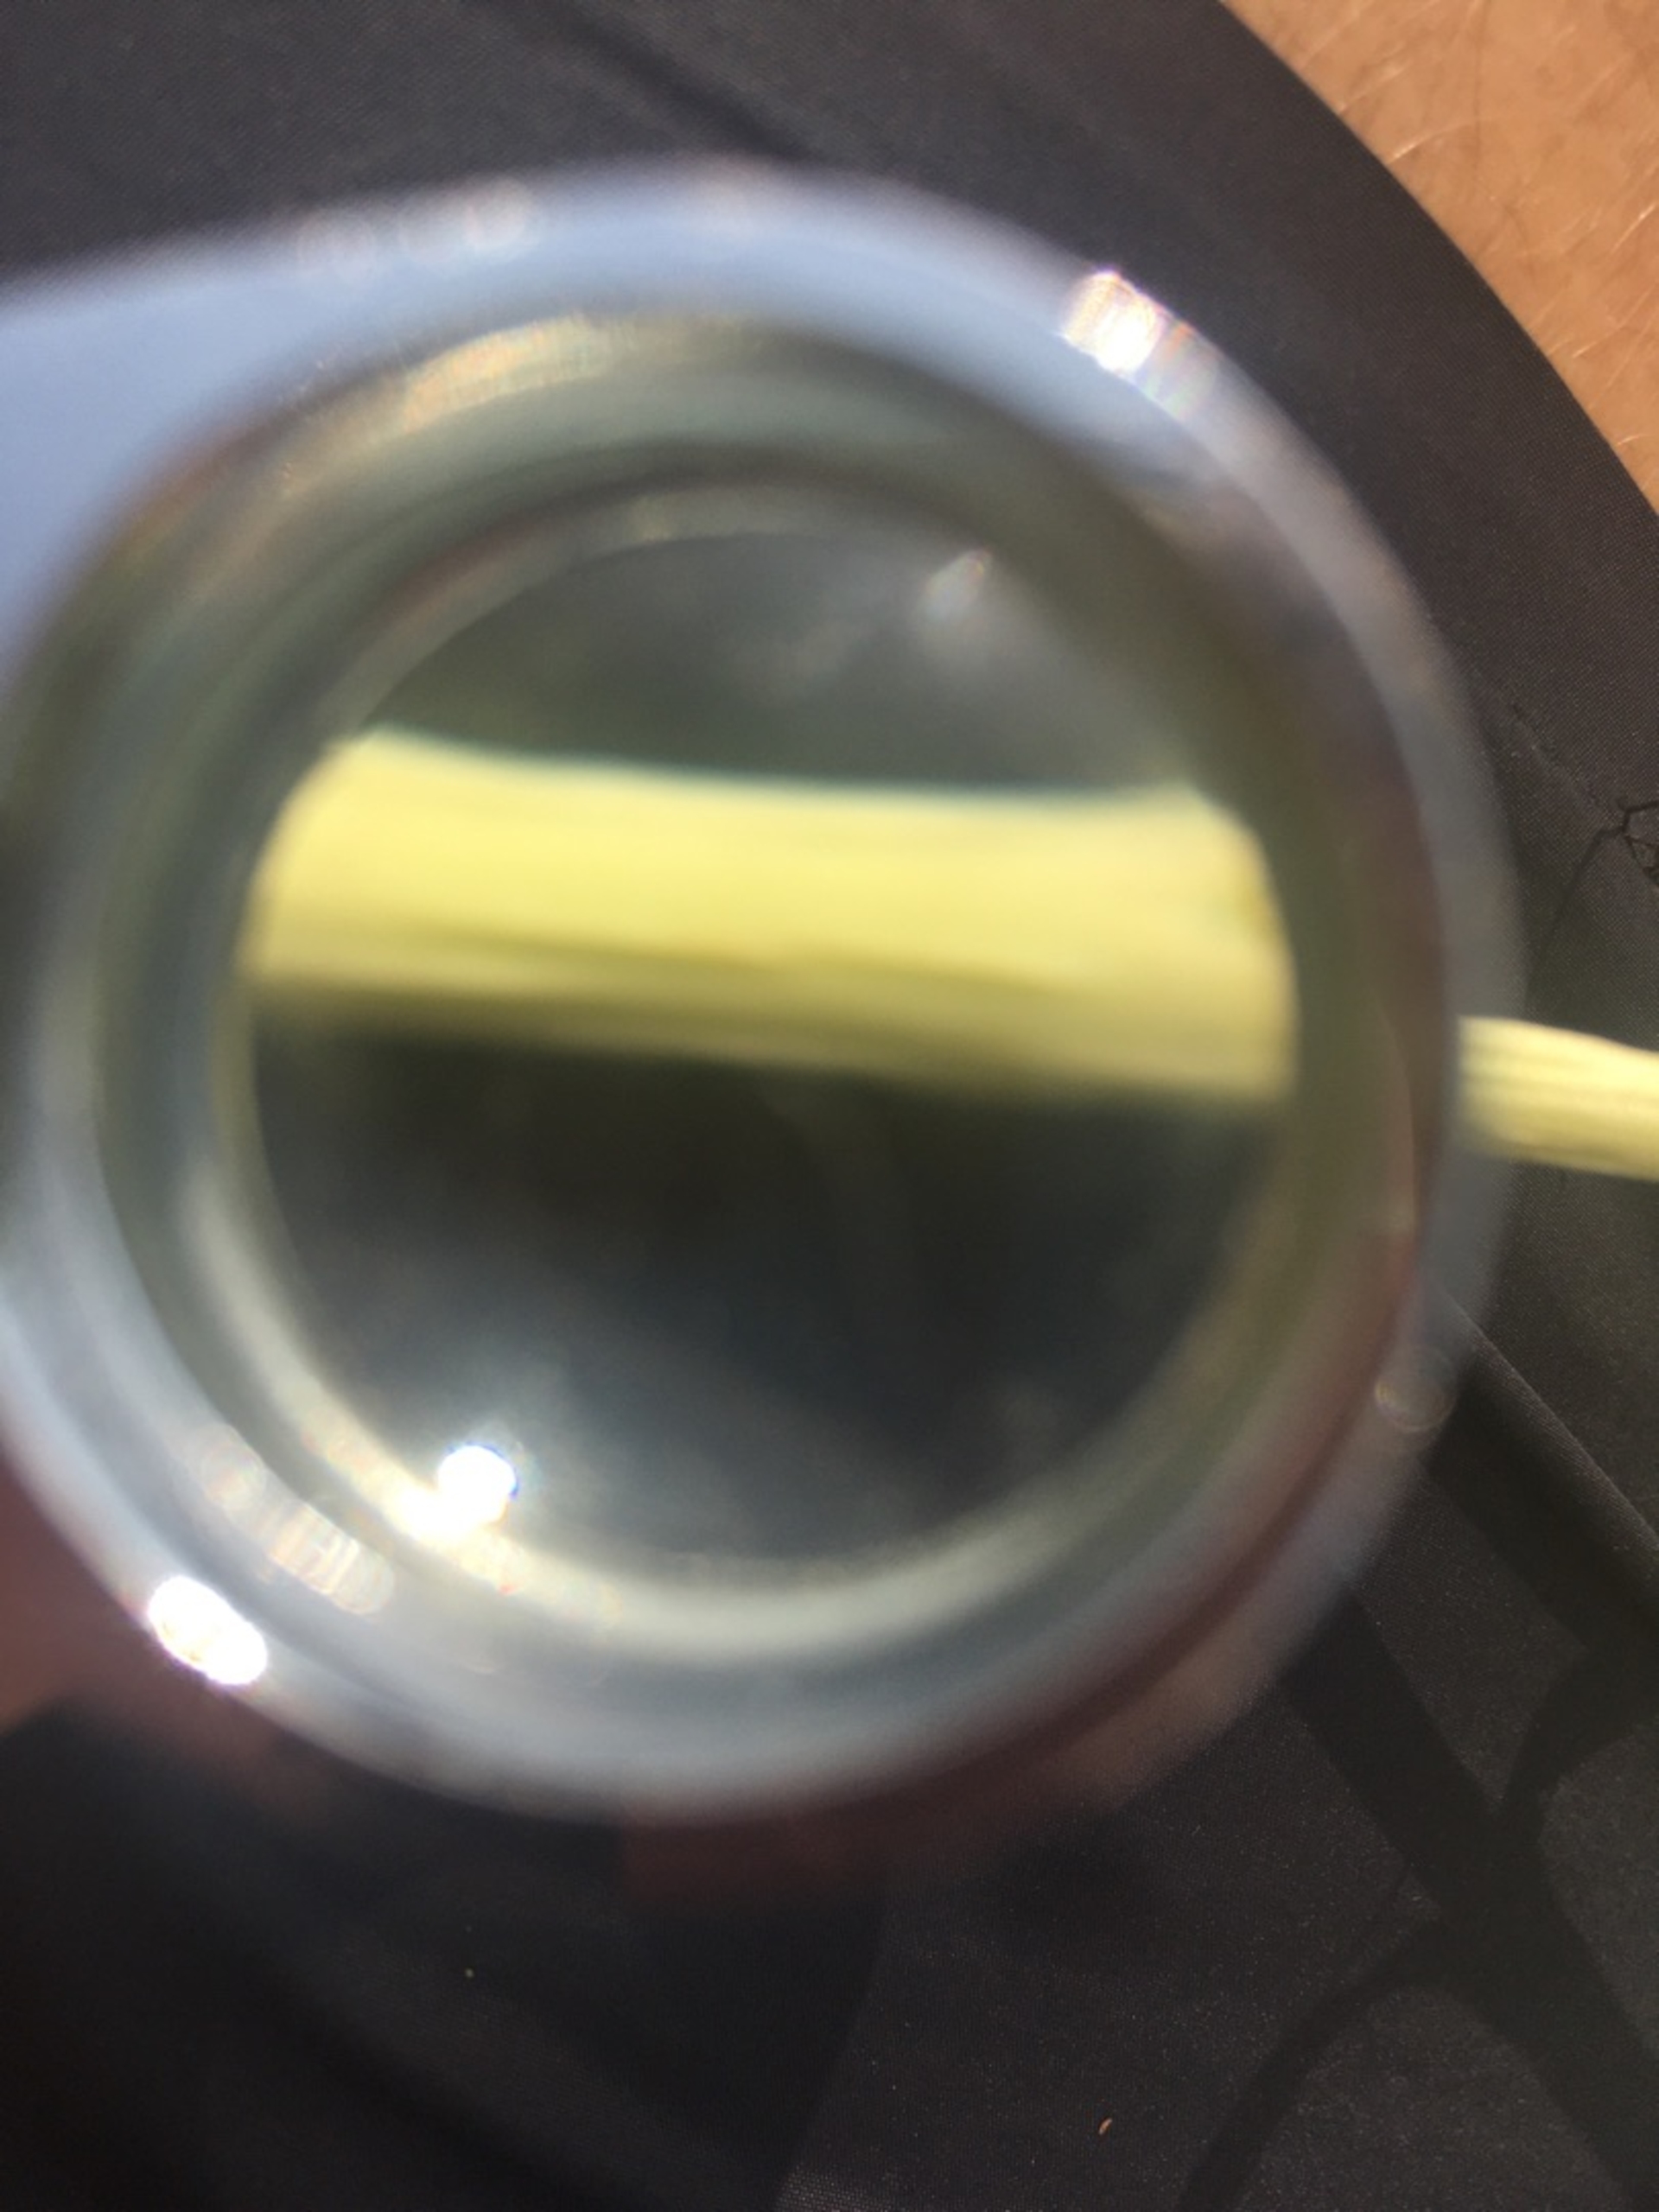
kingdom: Plantae
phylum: Tracheophyta
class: Magnoliopsida
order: Malpighiales
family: Salicaceae
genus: Salix
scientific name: Salix cinerea
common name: Grå-pil
